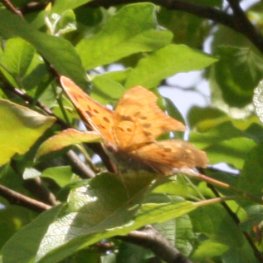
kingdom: Animalia
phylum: Arthropoda
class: Insecta
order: Lepidoptera
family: Nymphalidae
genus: Polygonia
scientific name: Polygonia interrogationis
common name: Question Mark
